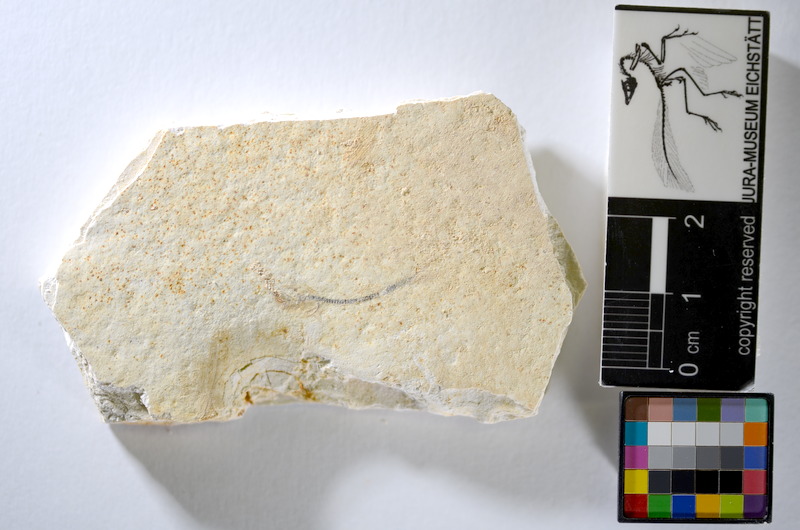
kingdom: Animalia
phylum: Chordata
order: Salmoniformes
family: Orthogonikleithridae
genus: Orthogonikleithrus
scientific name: Orthogonikleithrus hoelli
